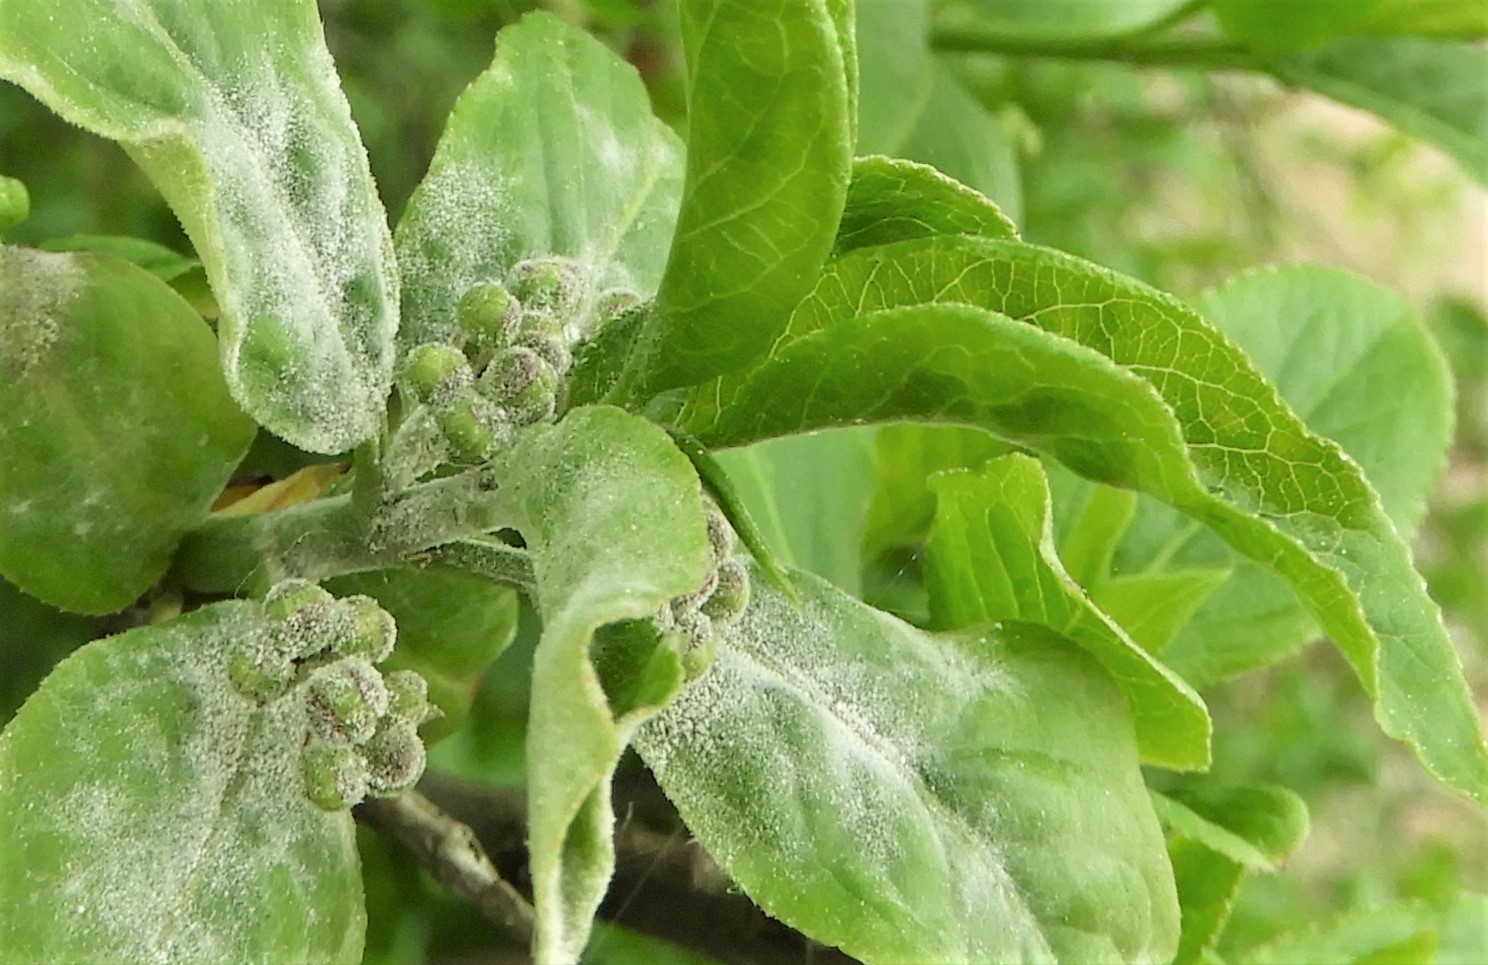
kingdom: Fungi
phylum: Ascomycota
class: Leotiomycetes
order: Helotiales
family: Erysiphaceae
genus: Erysiphe
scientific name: Erysiphe euonymi
